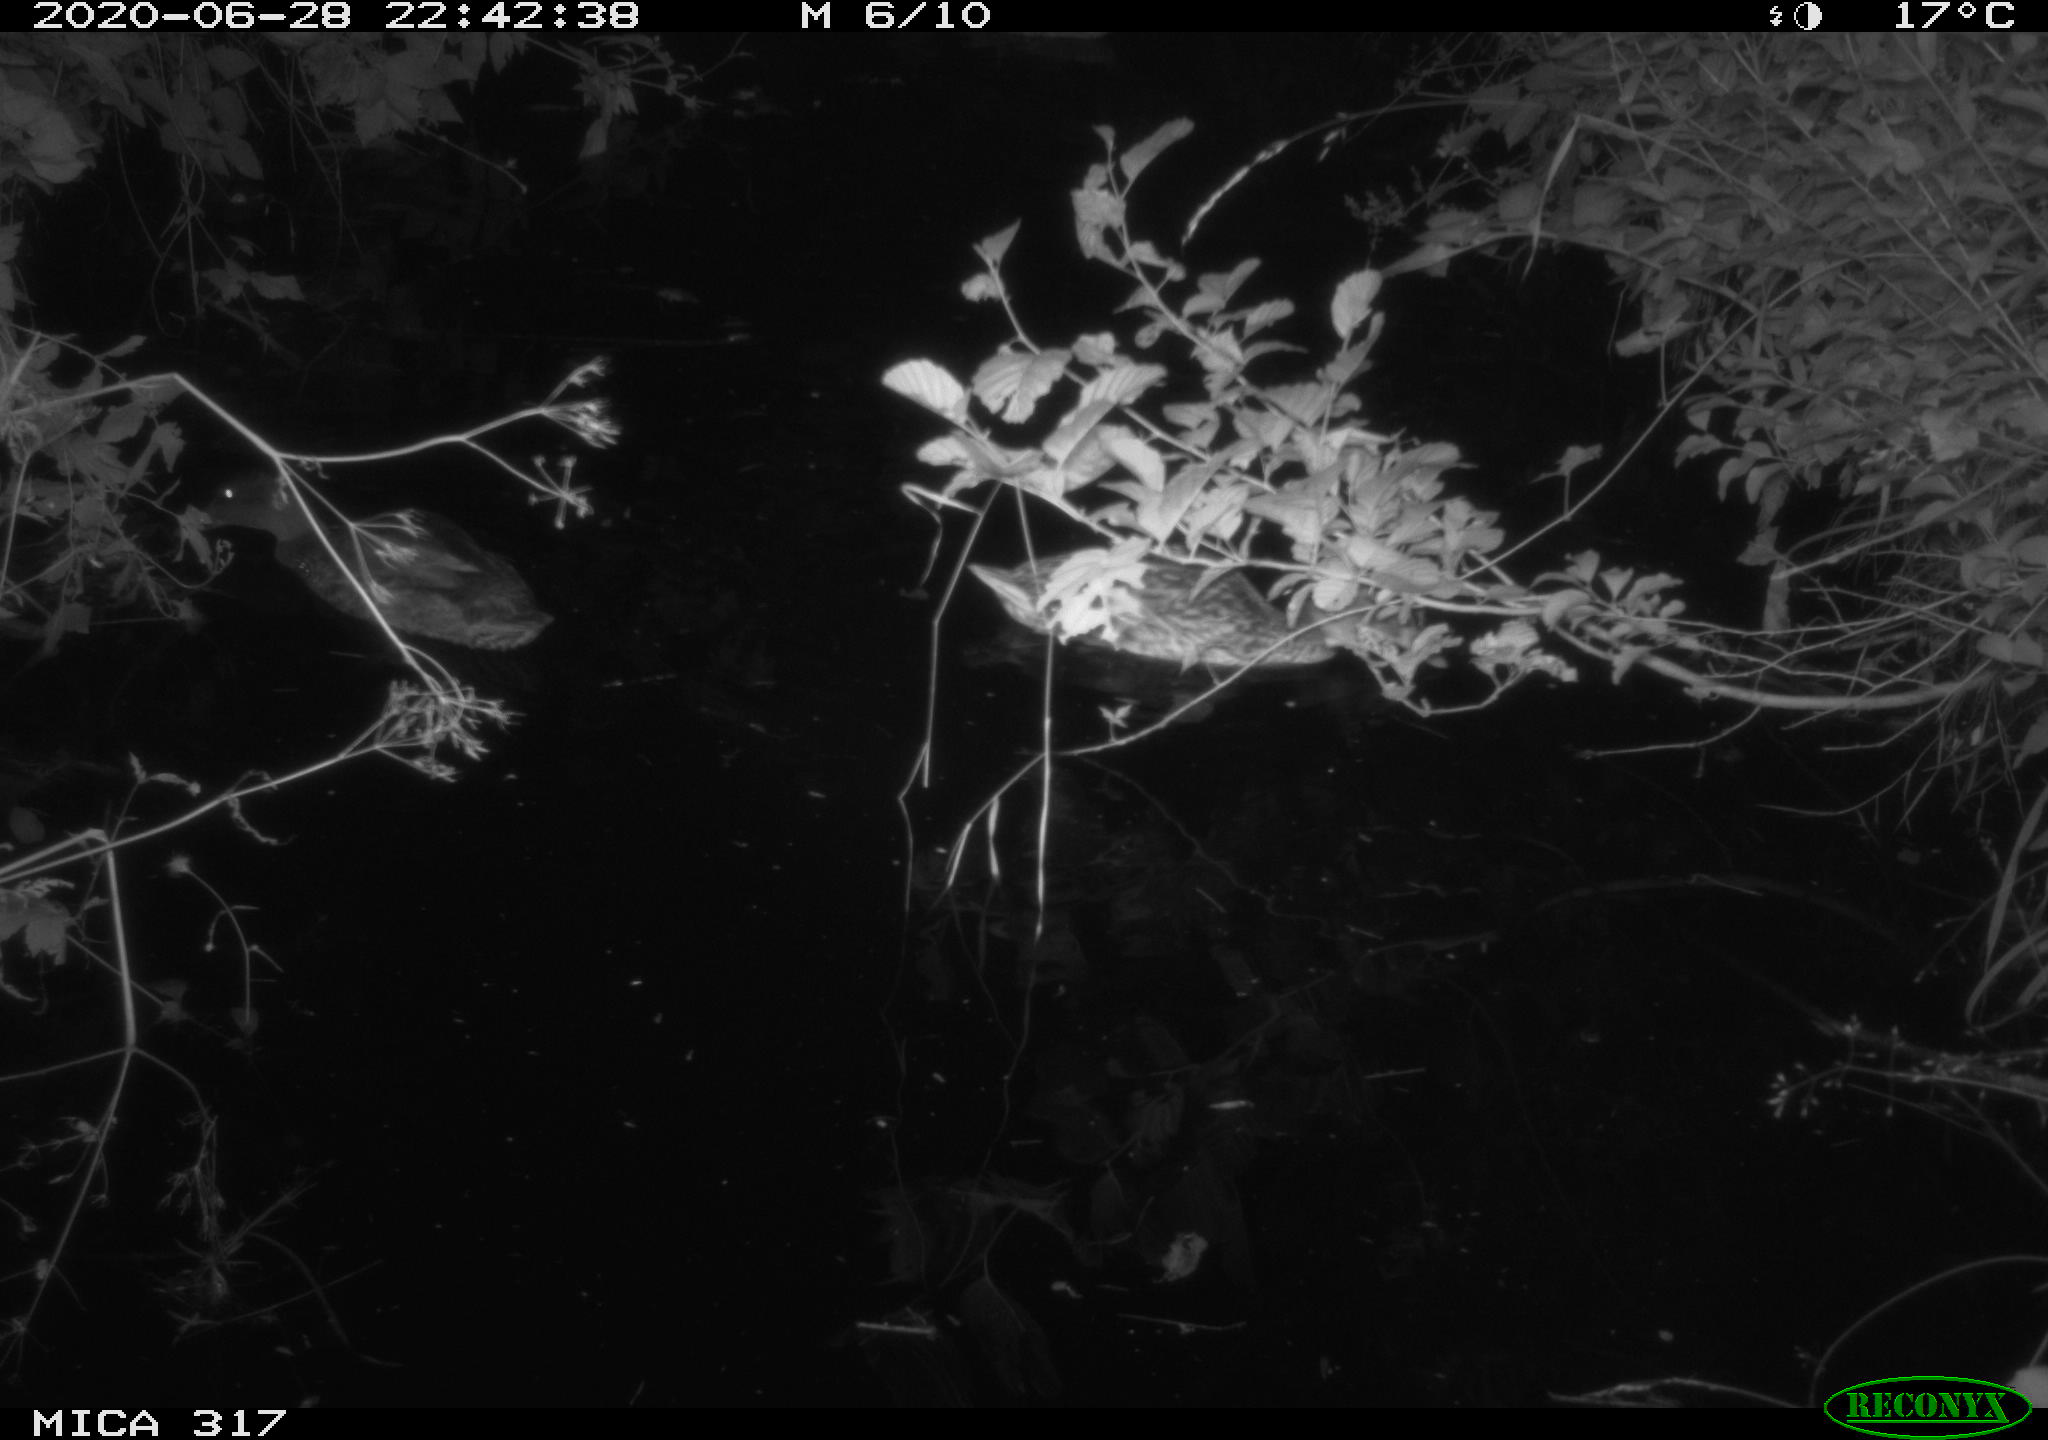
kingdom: Animalia
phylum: Chordata
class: Aves
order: Anseriformes
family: Anatidae
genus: Anas
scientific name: Anas platyrhynchos
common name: Mallard
